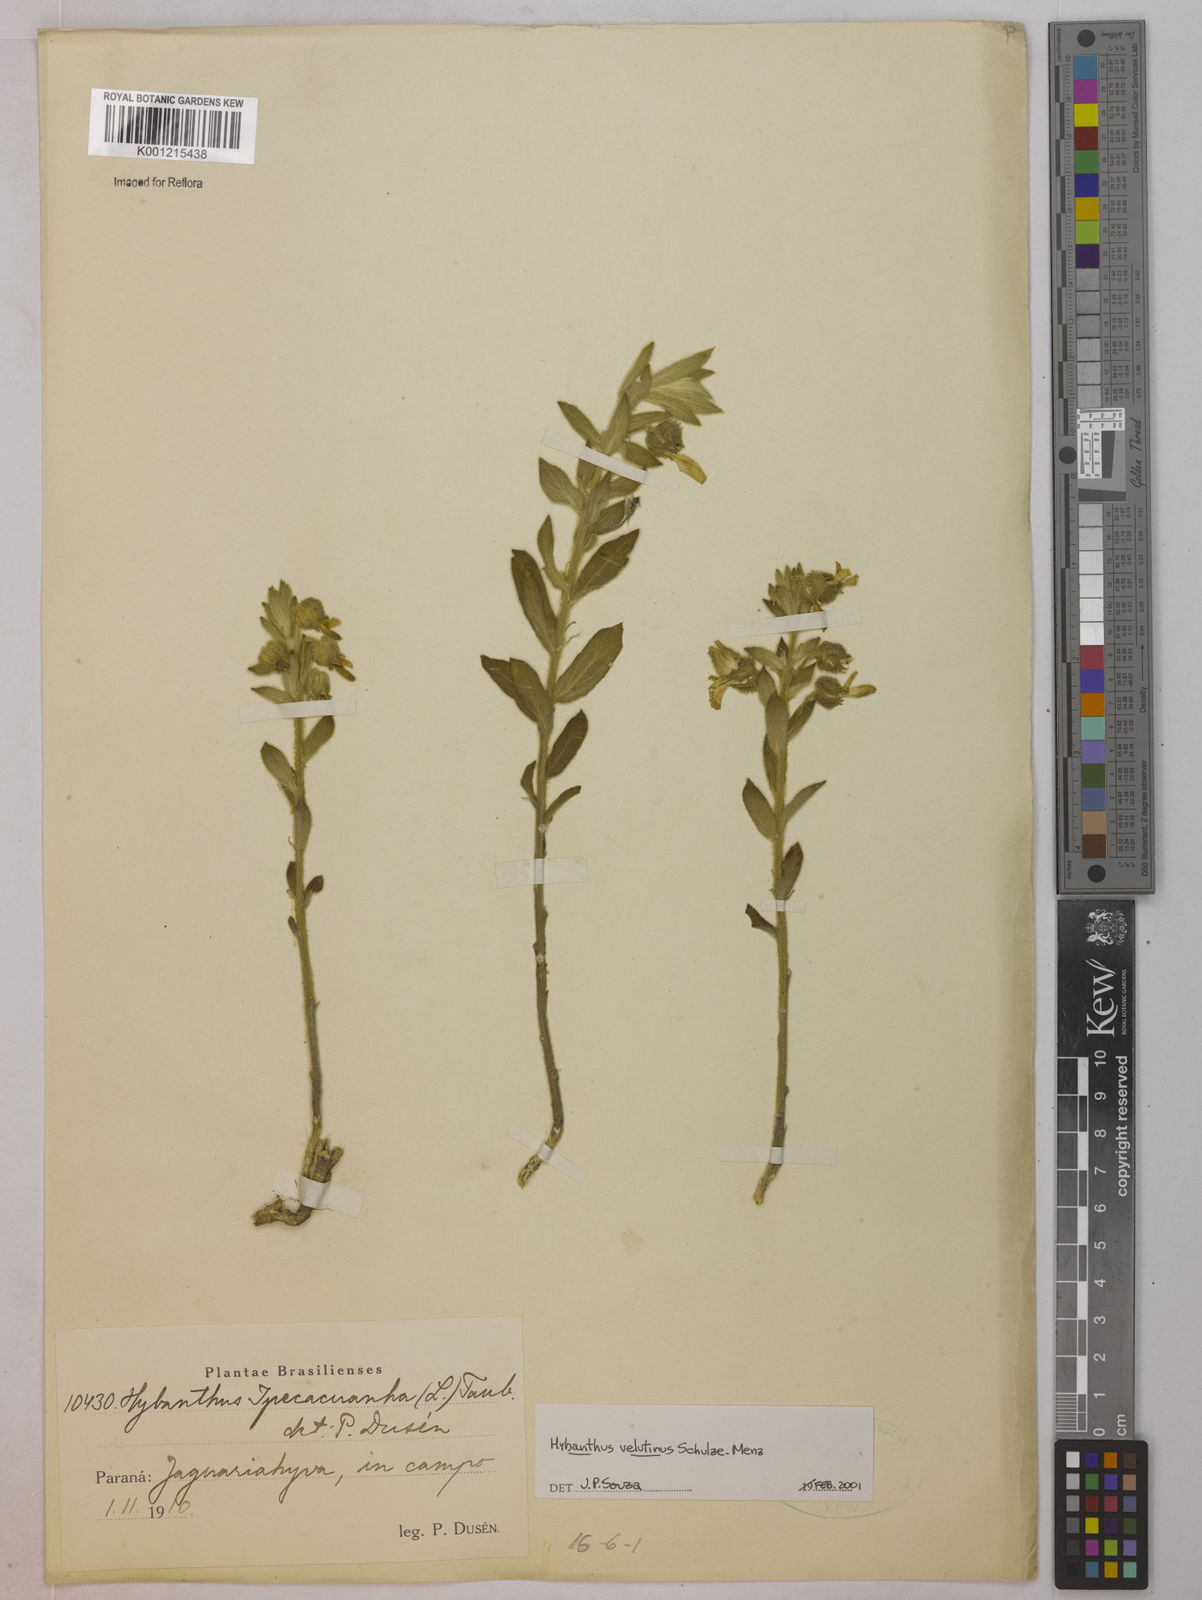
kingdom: Plantae
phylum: Tracheophyta
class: Magnoliopsida
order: Lamiales
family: Lamiaceae
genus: Hyptidendron
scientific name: Hyptidendron leucophyllum
